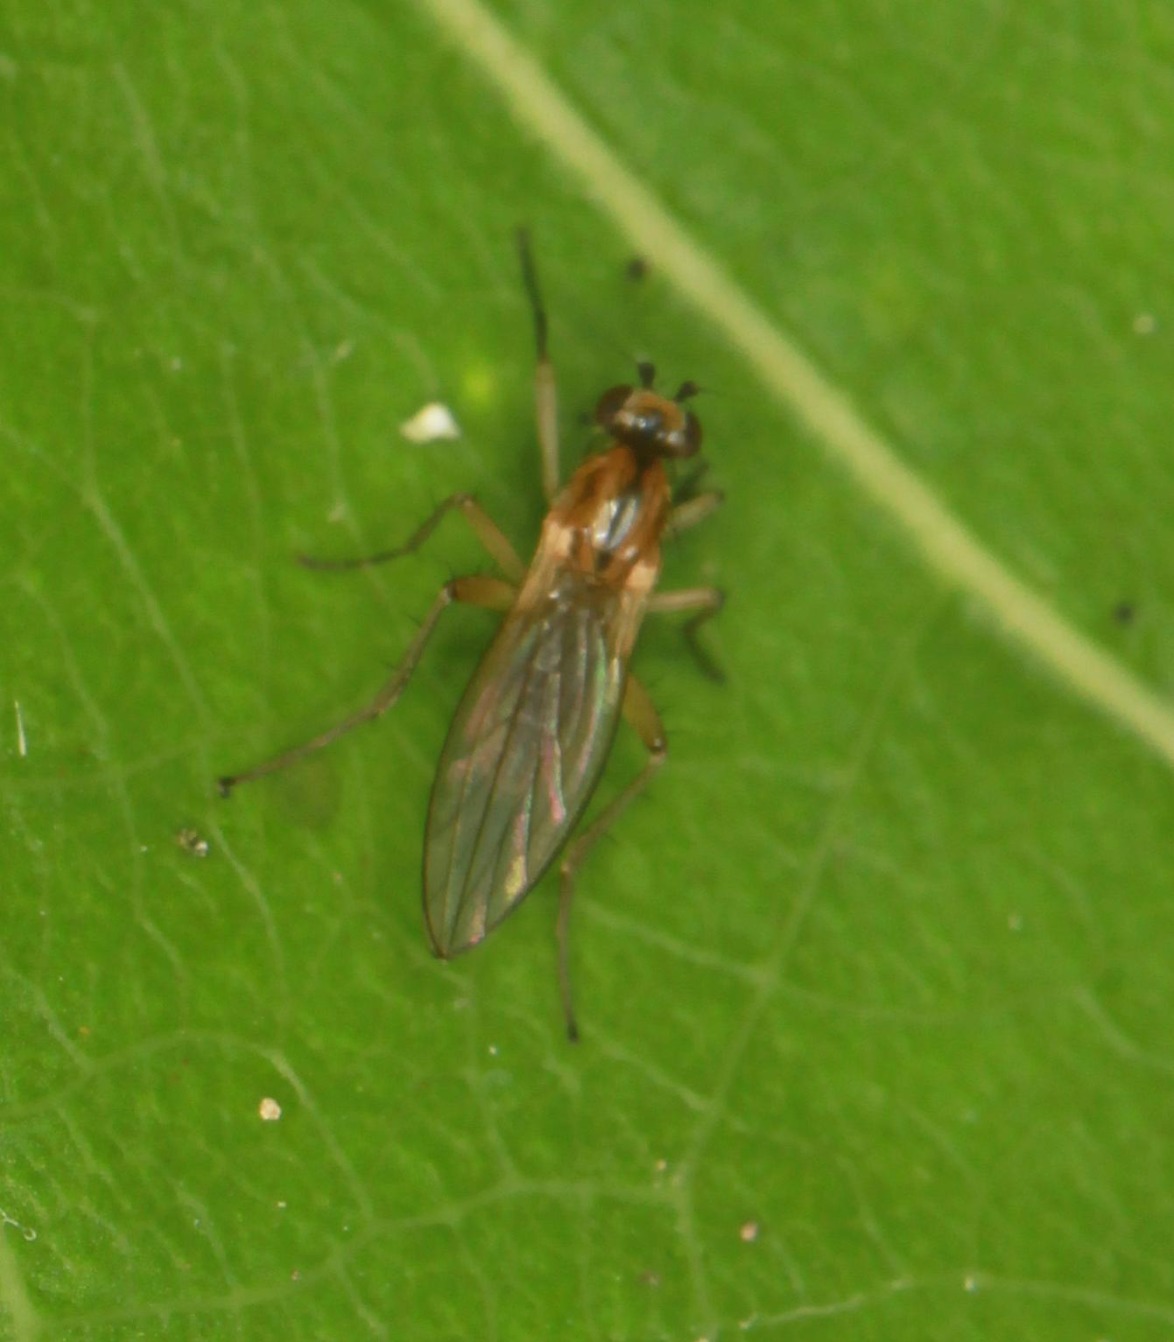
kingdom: Animalia
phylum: Arthropoda
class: Insecta
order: Diptera
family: Lonchopteridae
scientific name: Lonchopteridae
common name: Spidsvingefluer
